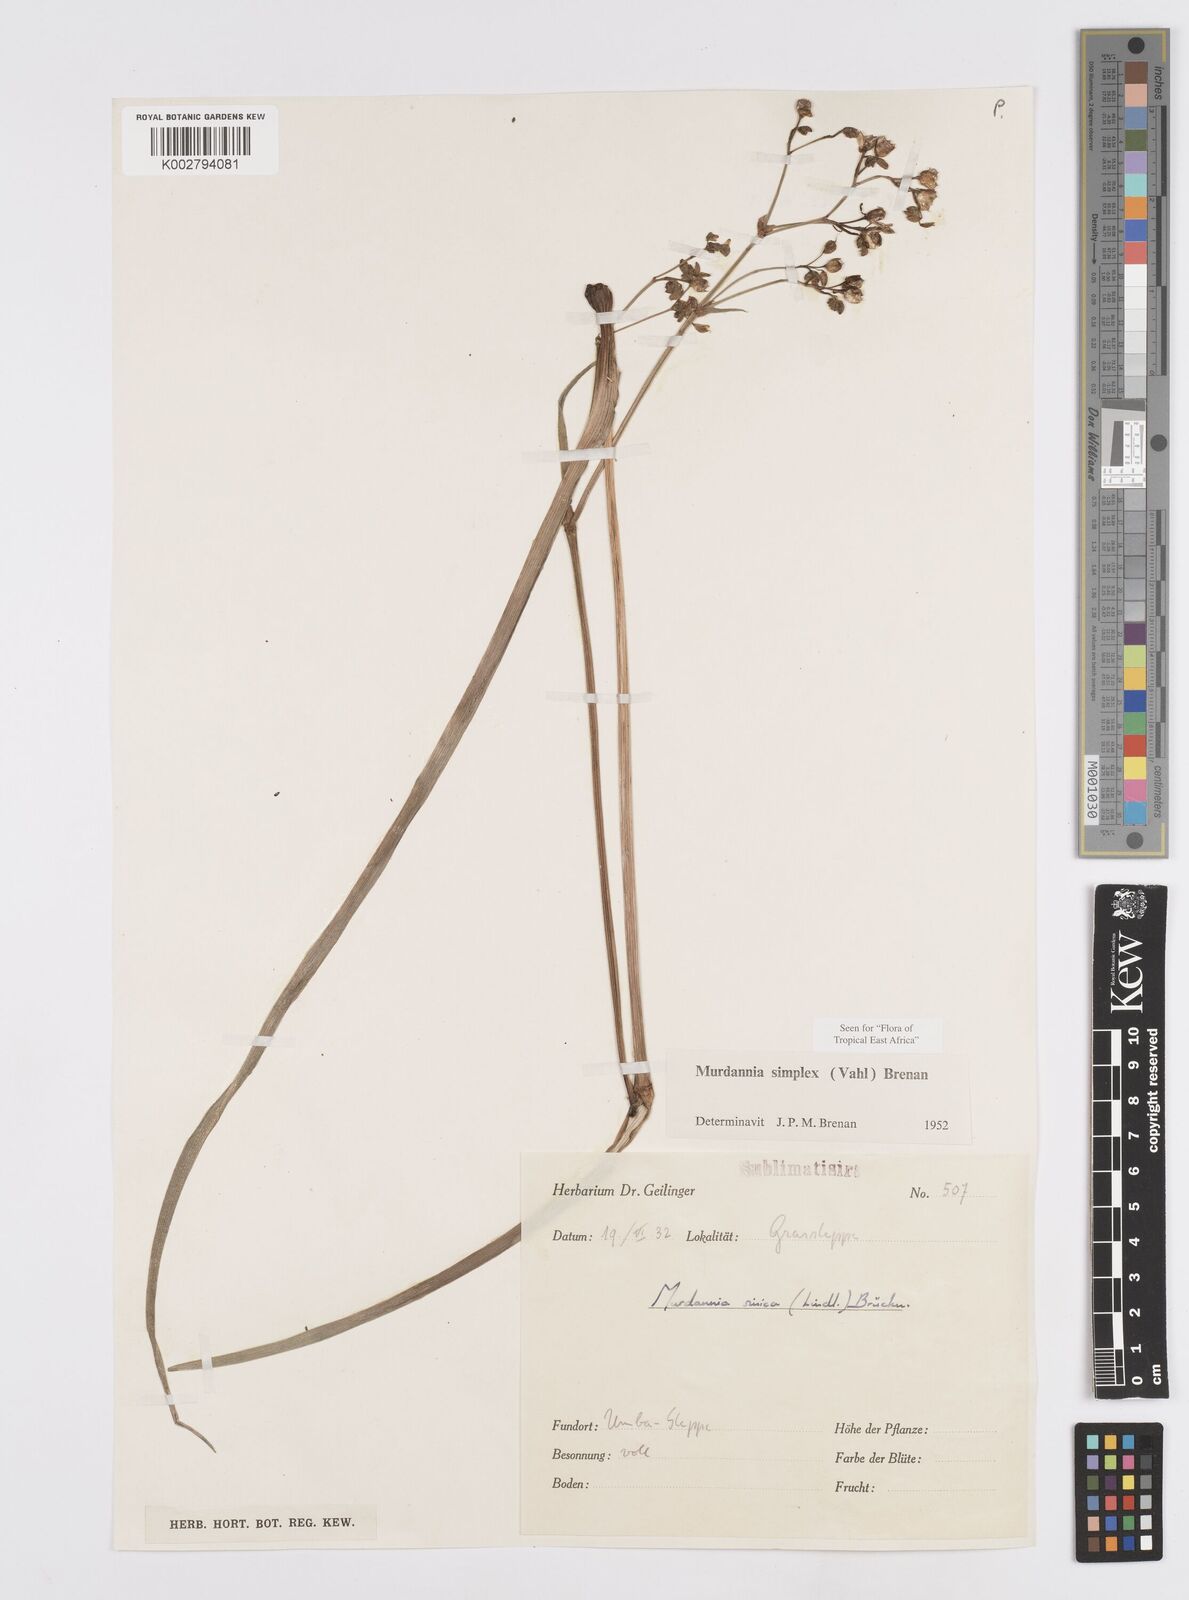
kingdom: Plantae
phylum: Tracheophyta
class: Liliopsida
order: Commelinales
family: Commelinaceae
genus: Murdannia
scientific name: Murdannia simplex
